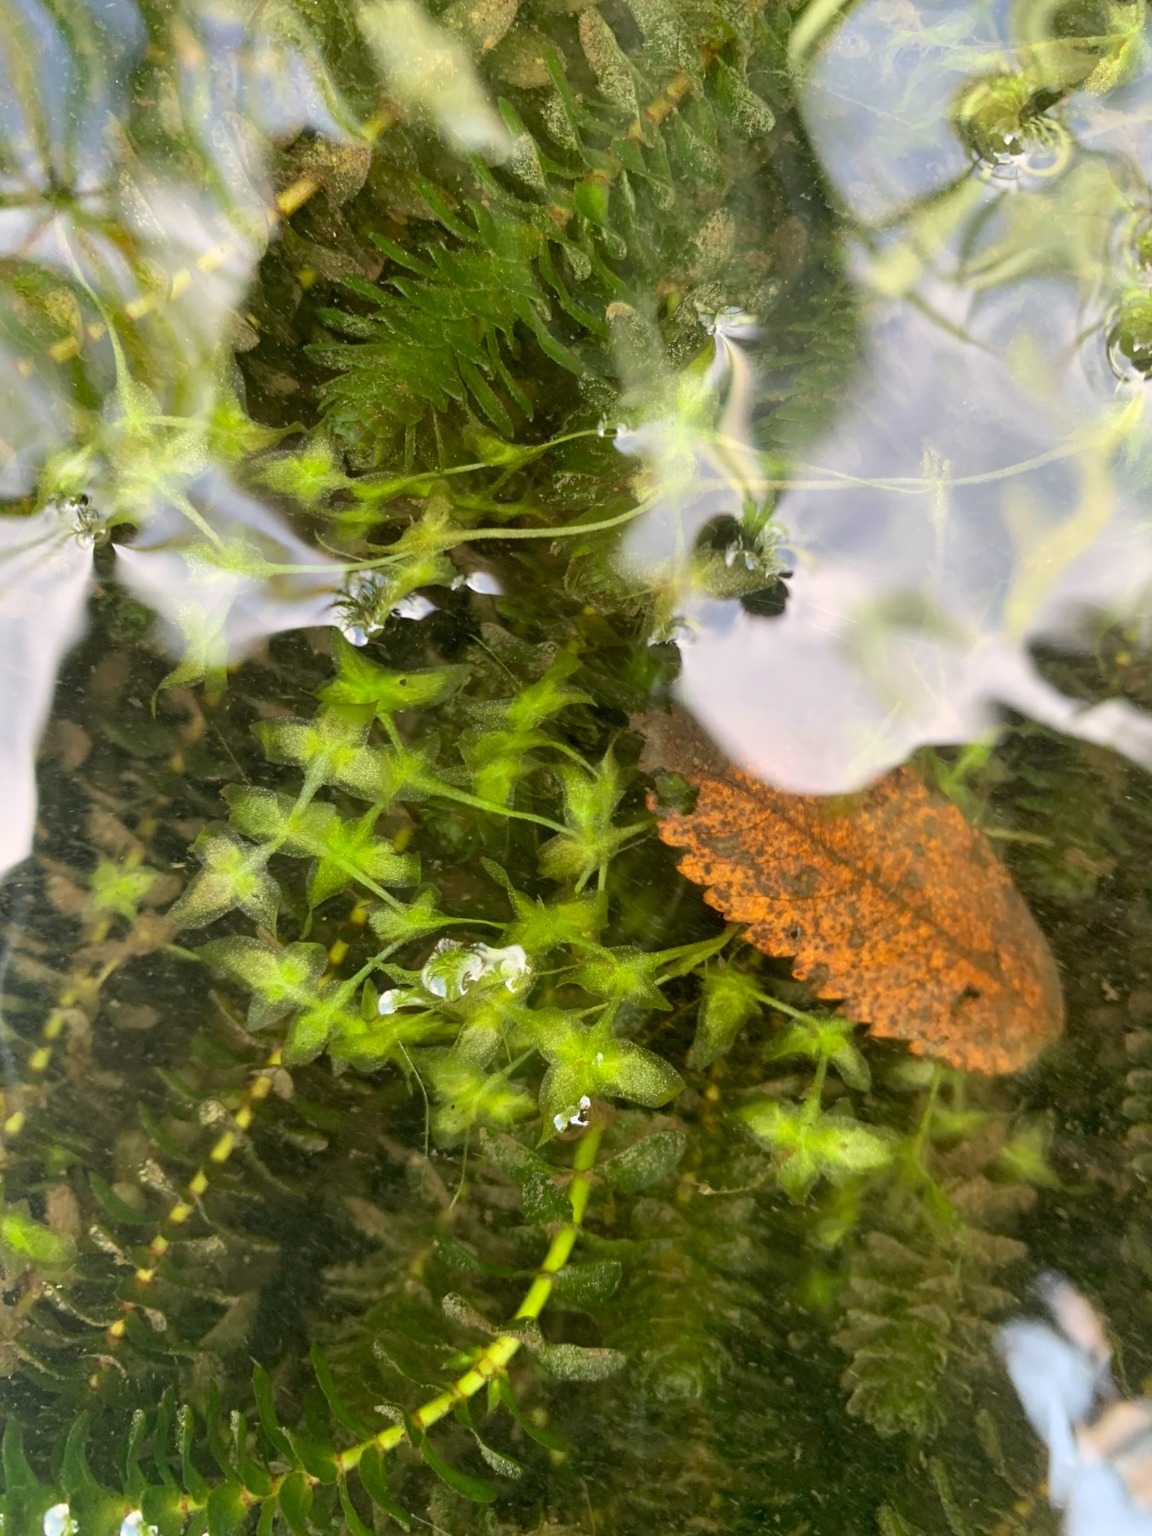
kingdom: Plantae
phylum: Tracheophyta
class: Liliopsida
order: Alismatales
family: Araceae
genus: Lemna
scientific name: Lemna trisulca
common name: Kors-andemad
